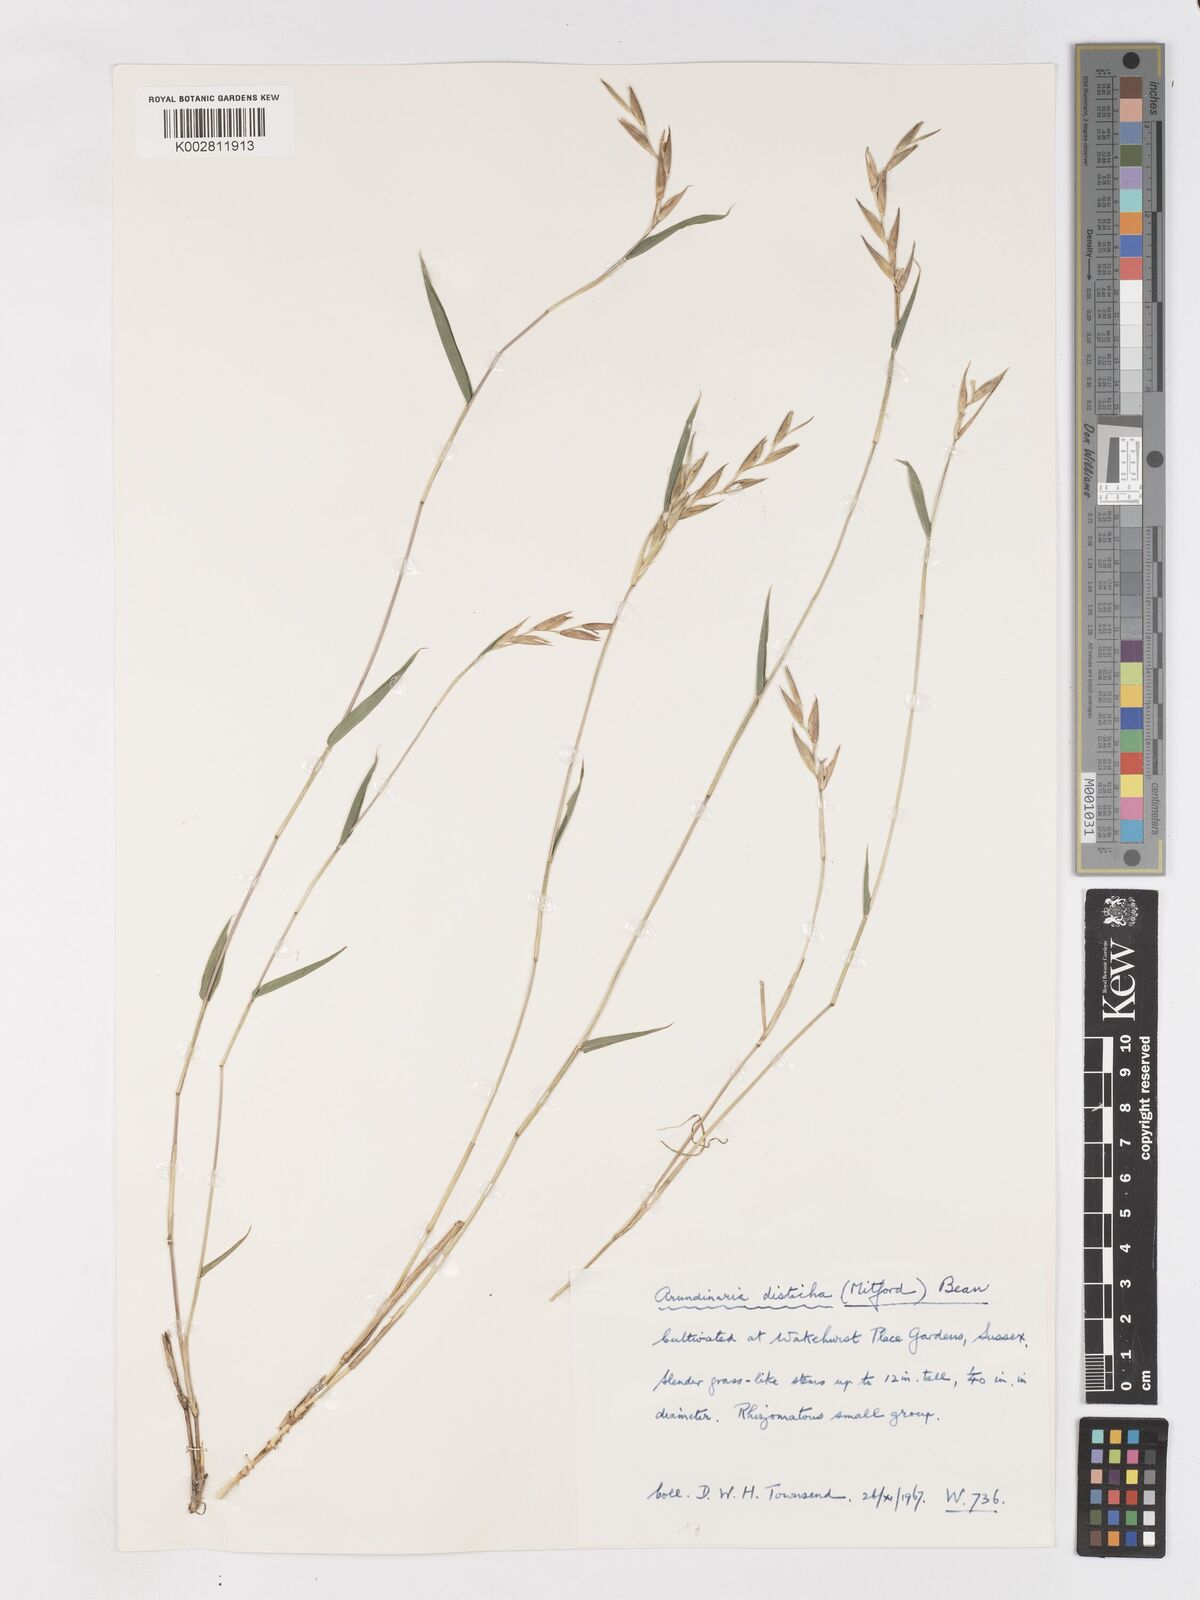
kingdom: Plantae
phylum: Tracheophyta
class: Liliopsida
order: Poales
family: Poaceae
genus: Pleioblastus
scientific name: Pleioblastus distichus
